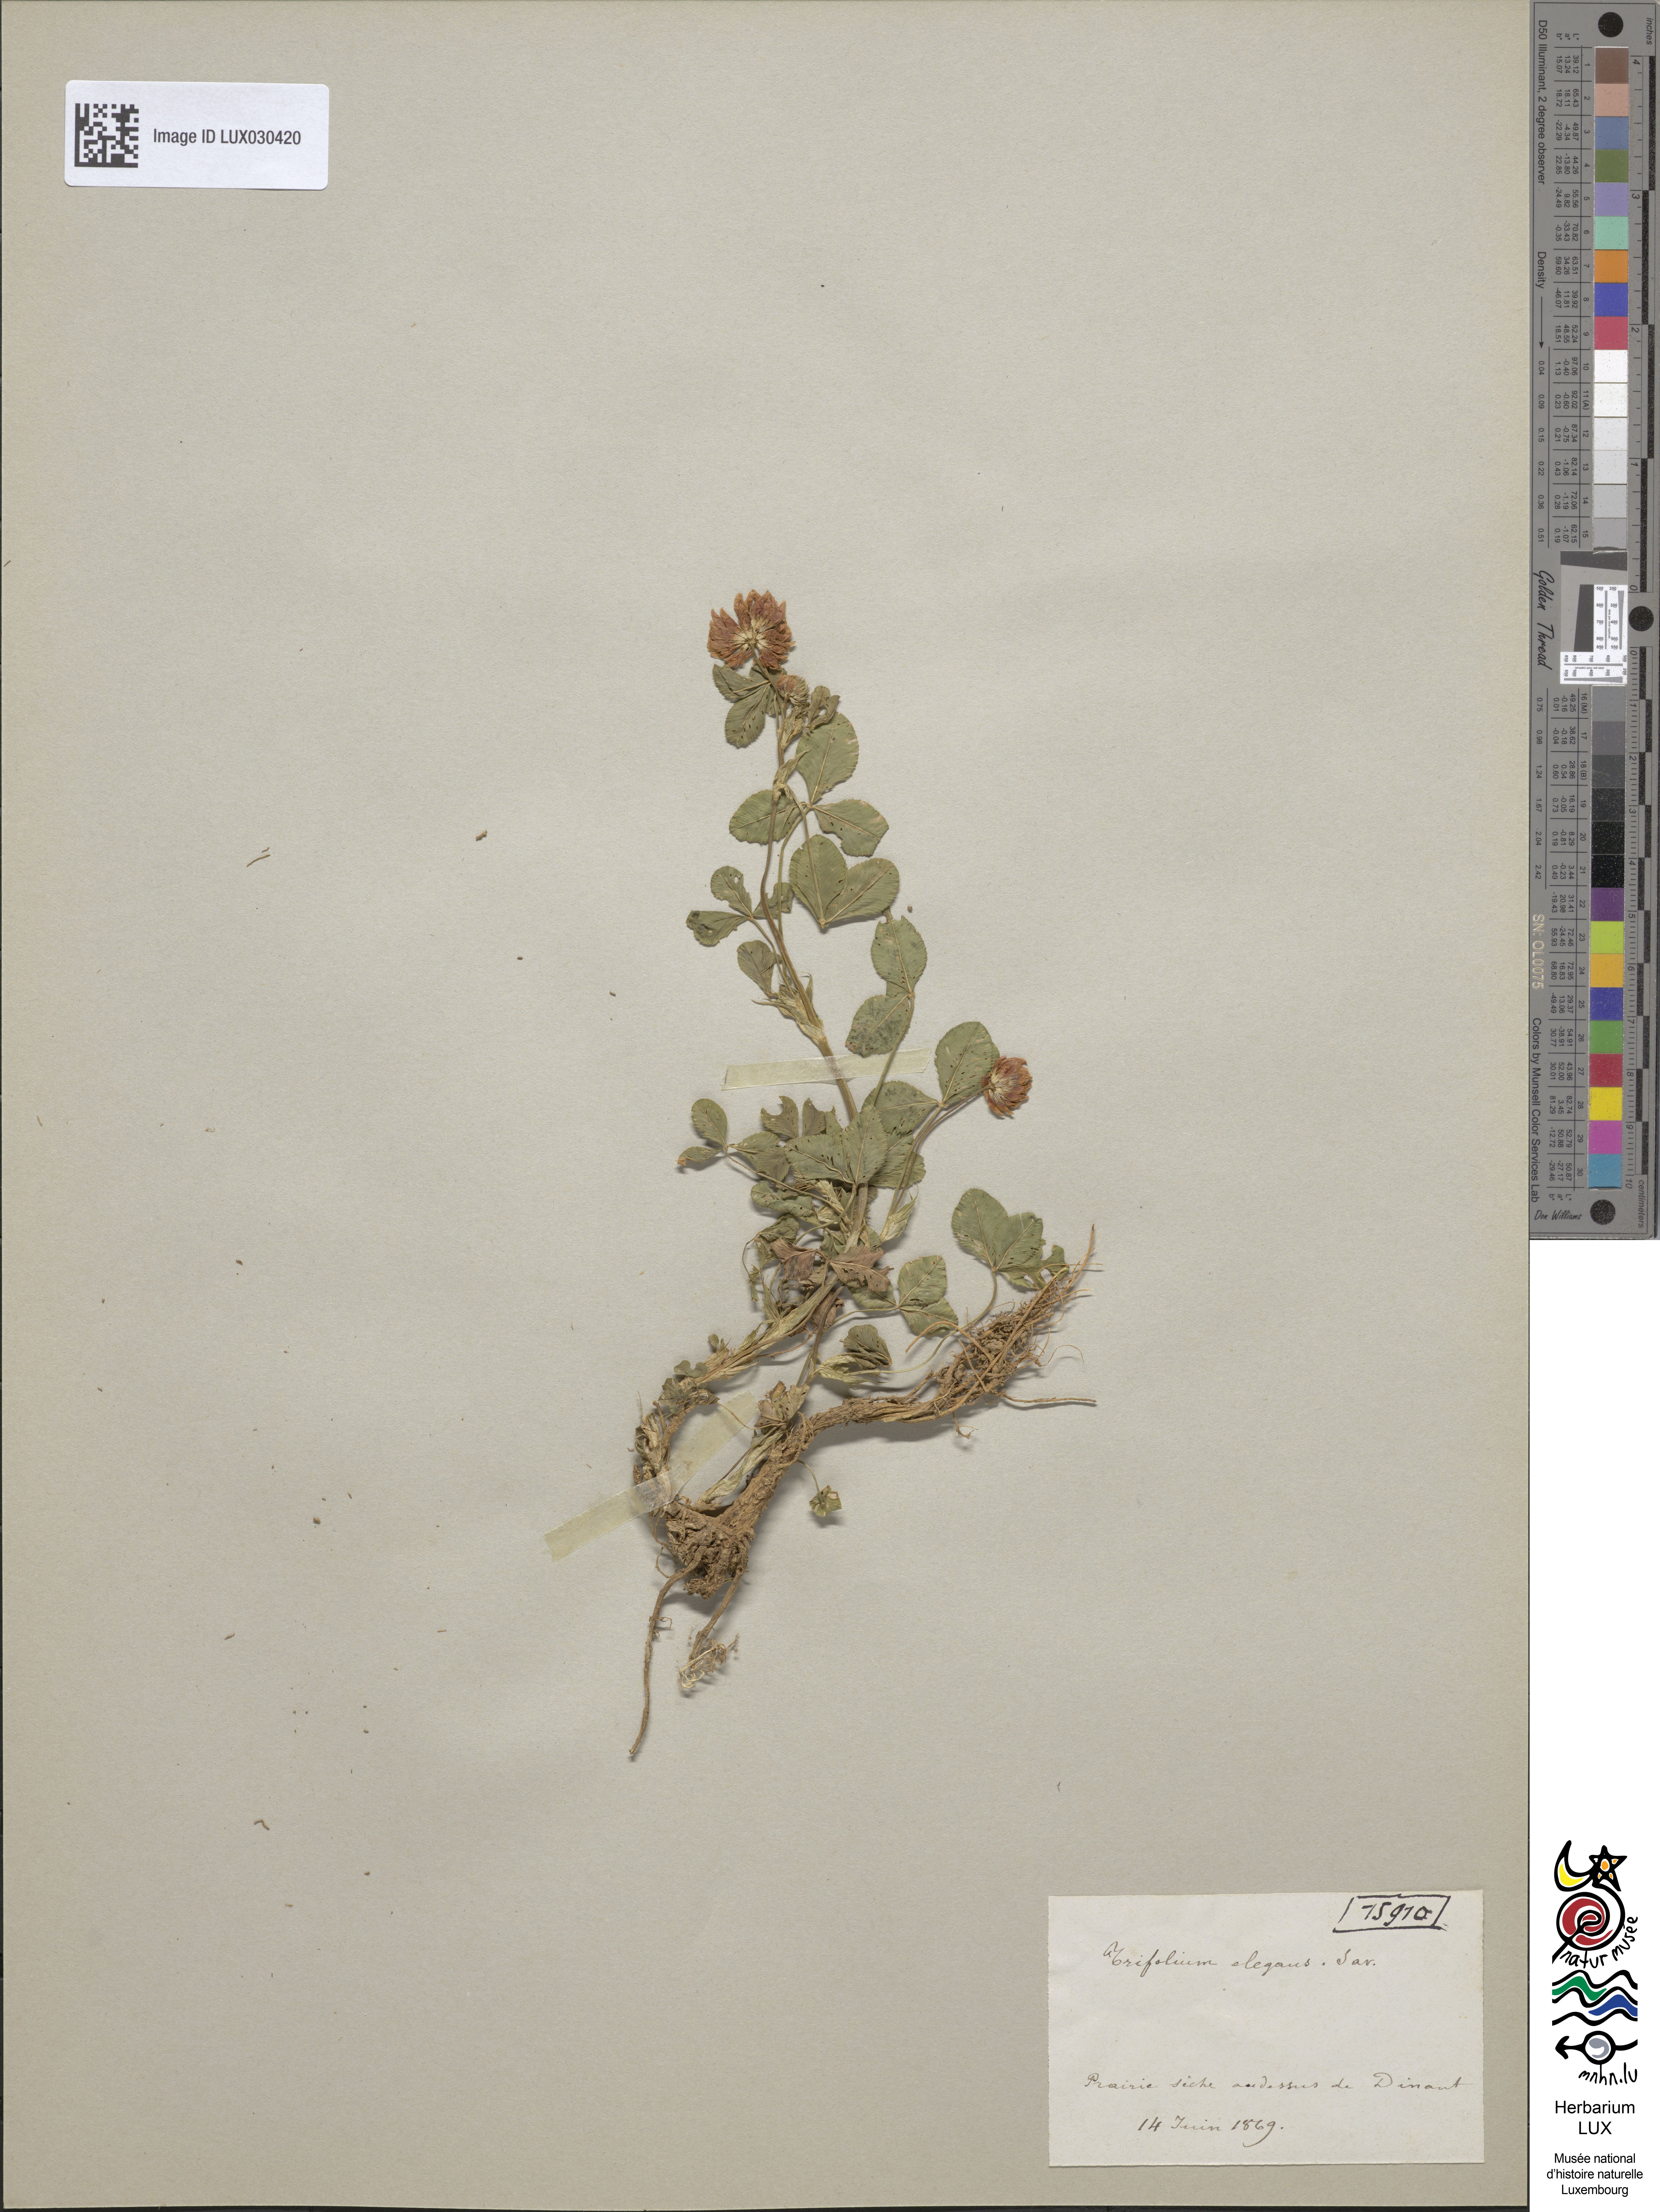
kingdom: Plantae
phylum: Tracheophyta
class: Magnoliopsida
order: Fabales
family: Fabaceae
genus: Trifolium
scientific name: Trifolium hybridum
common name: Alsike clover
